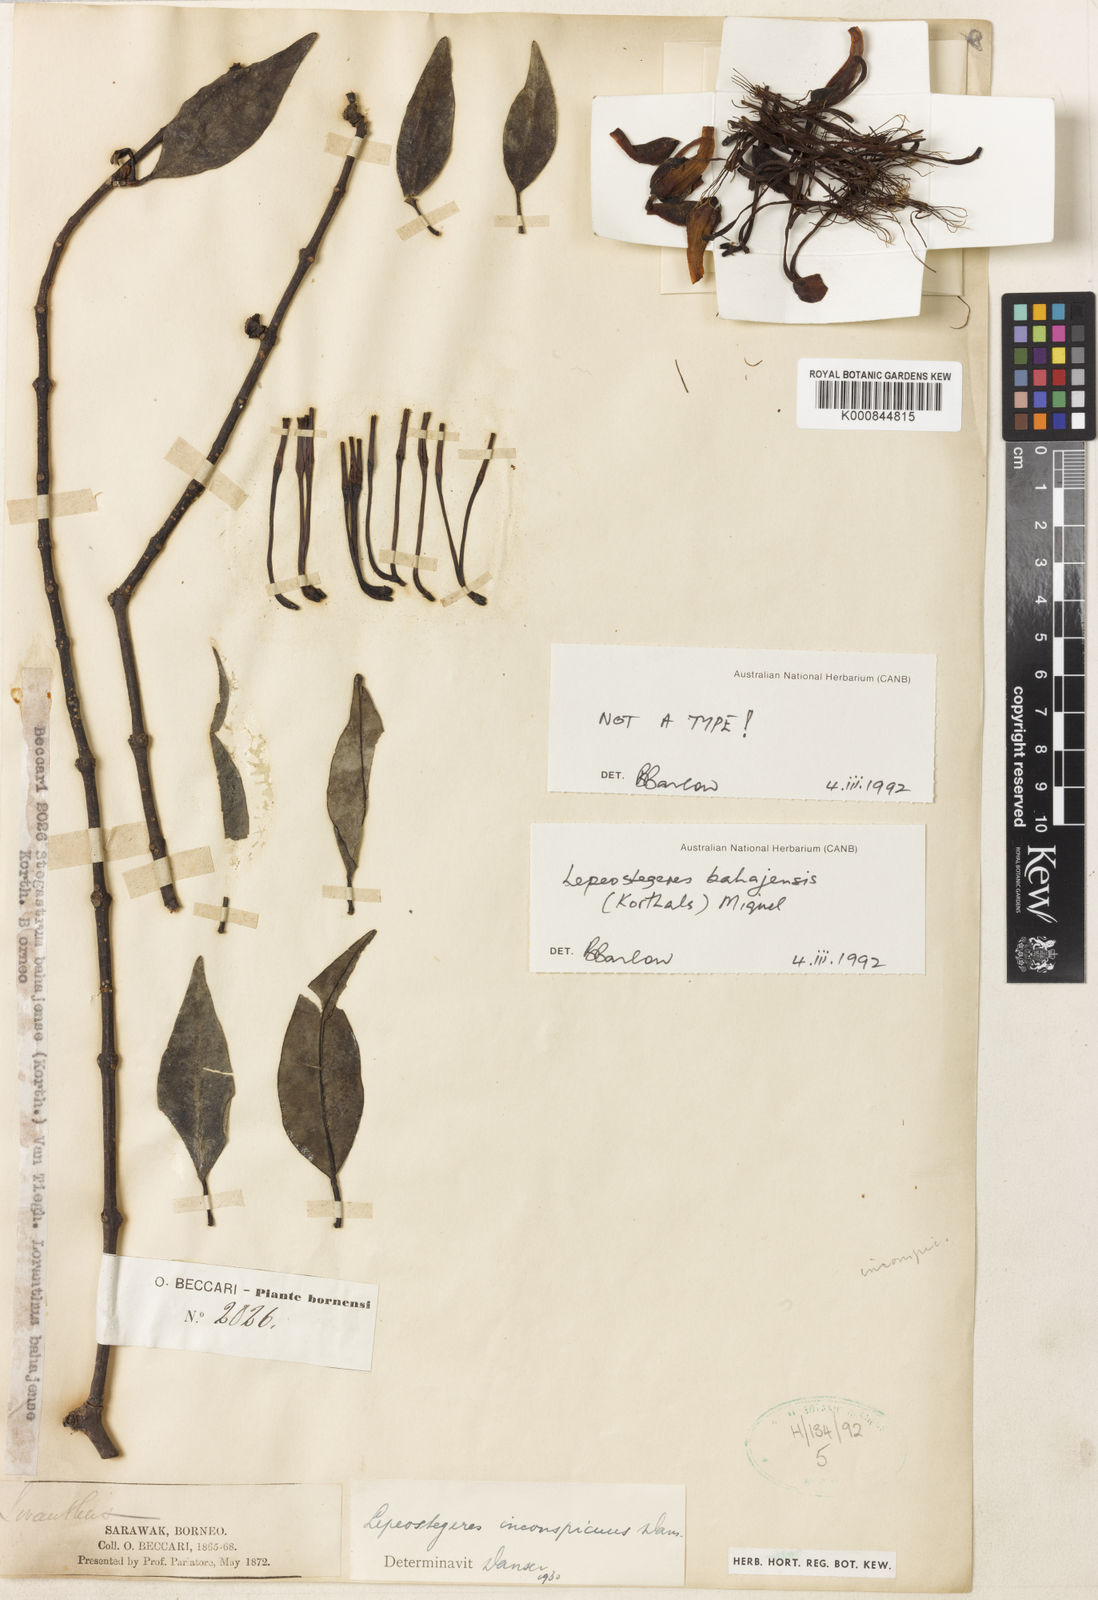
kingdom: Plantae
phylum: Tracheophyta
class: Magnoliopsida
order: Santalales
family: Loranthaceae
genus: Lepeostegeres
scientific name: Lepeostegeres bahajensis
